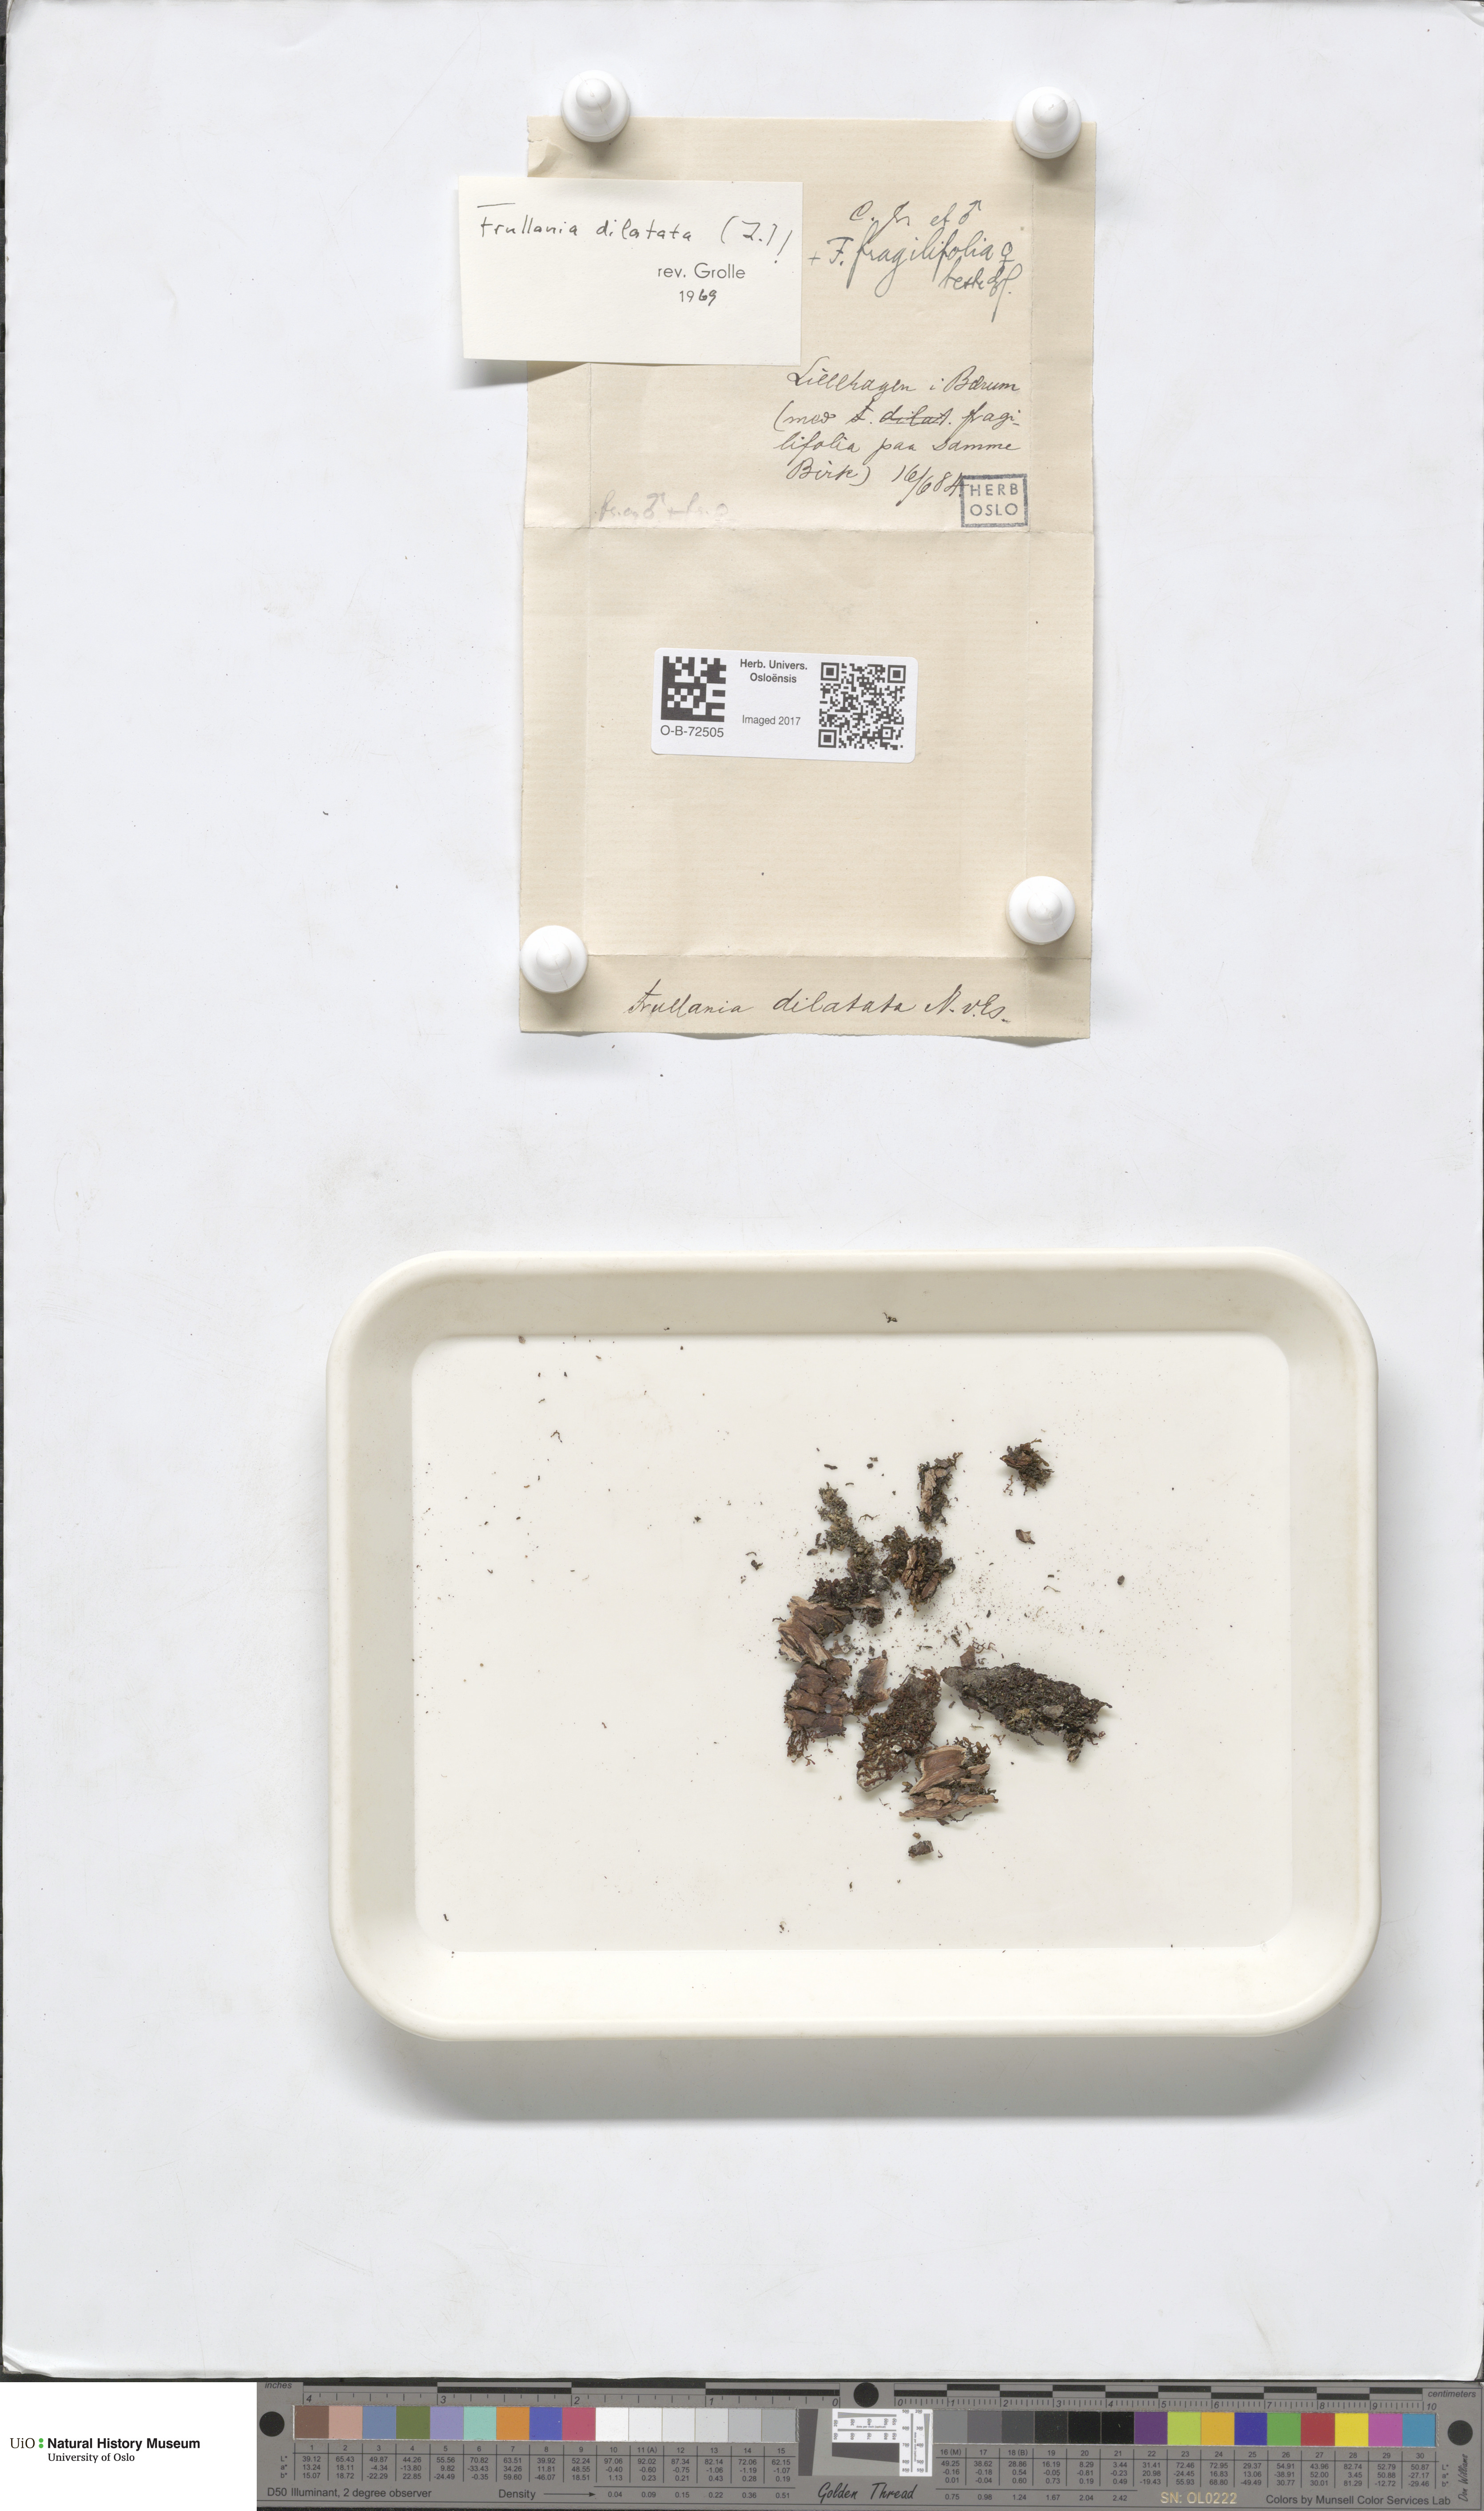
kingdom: Plantae
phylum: Marchantiophyta
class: Jungermanniopsida
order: Porellales
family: Frullaniaceae
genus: Frullania
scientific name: Frullania dilatata
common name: Dilated scalewort
